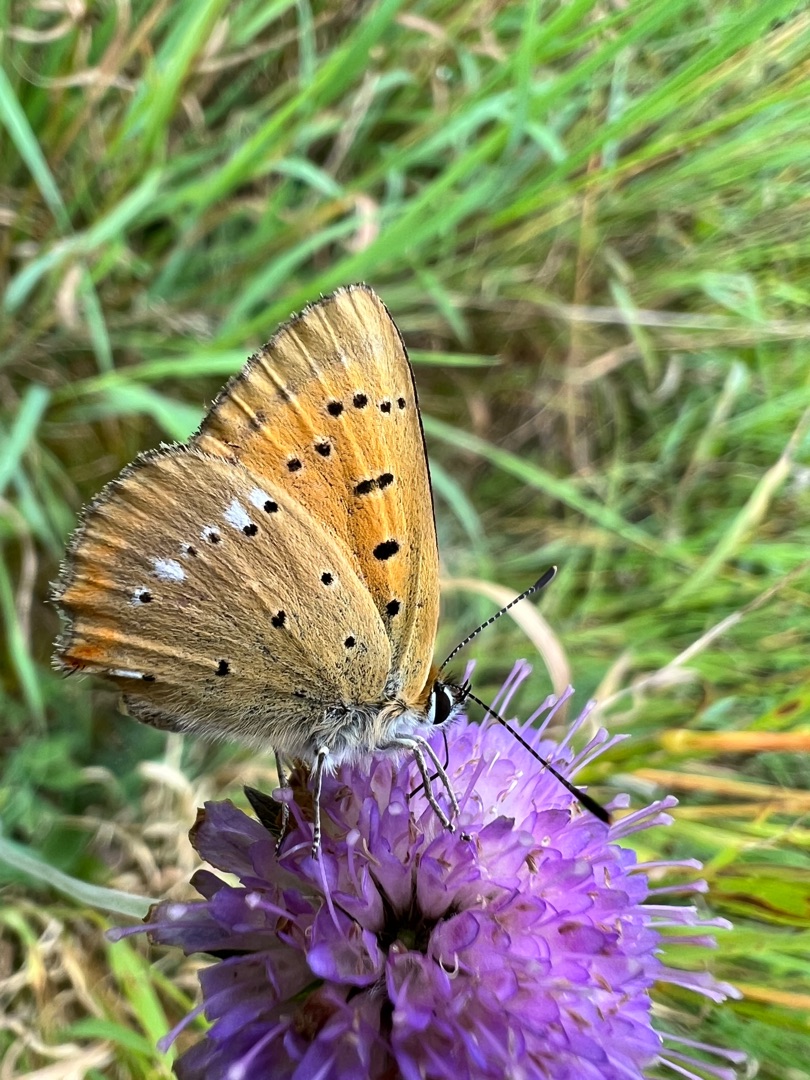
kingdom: Animalia
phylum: Arthropoda
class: Insecta
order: Lepidoptera
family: Lycaenidae
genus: Lycaena
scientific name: Lycaena virgaureae
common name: Dukatsommerfugl
